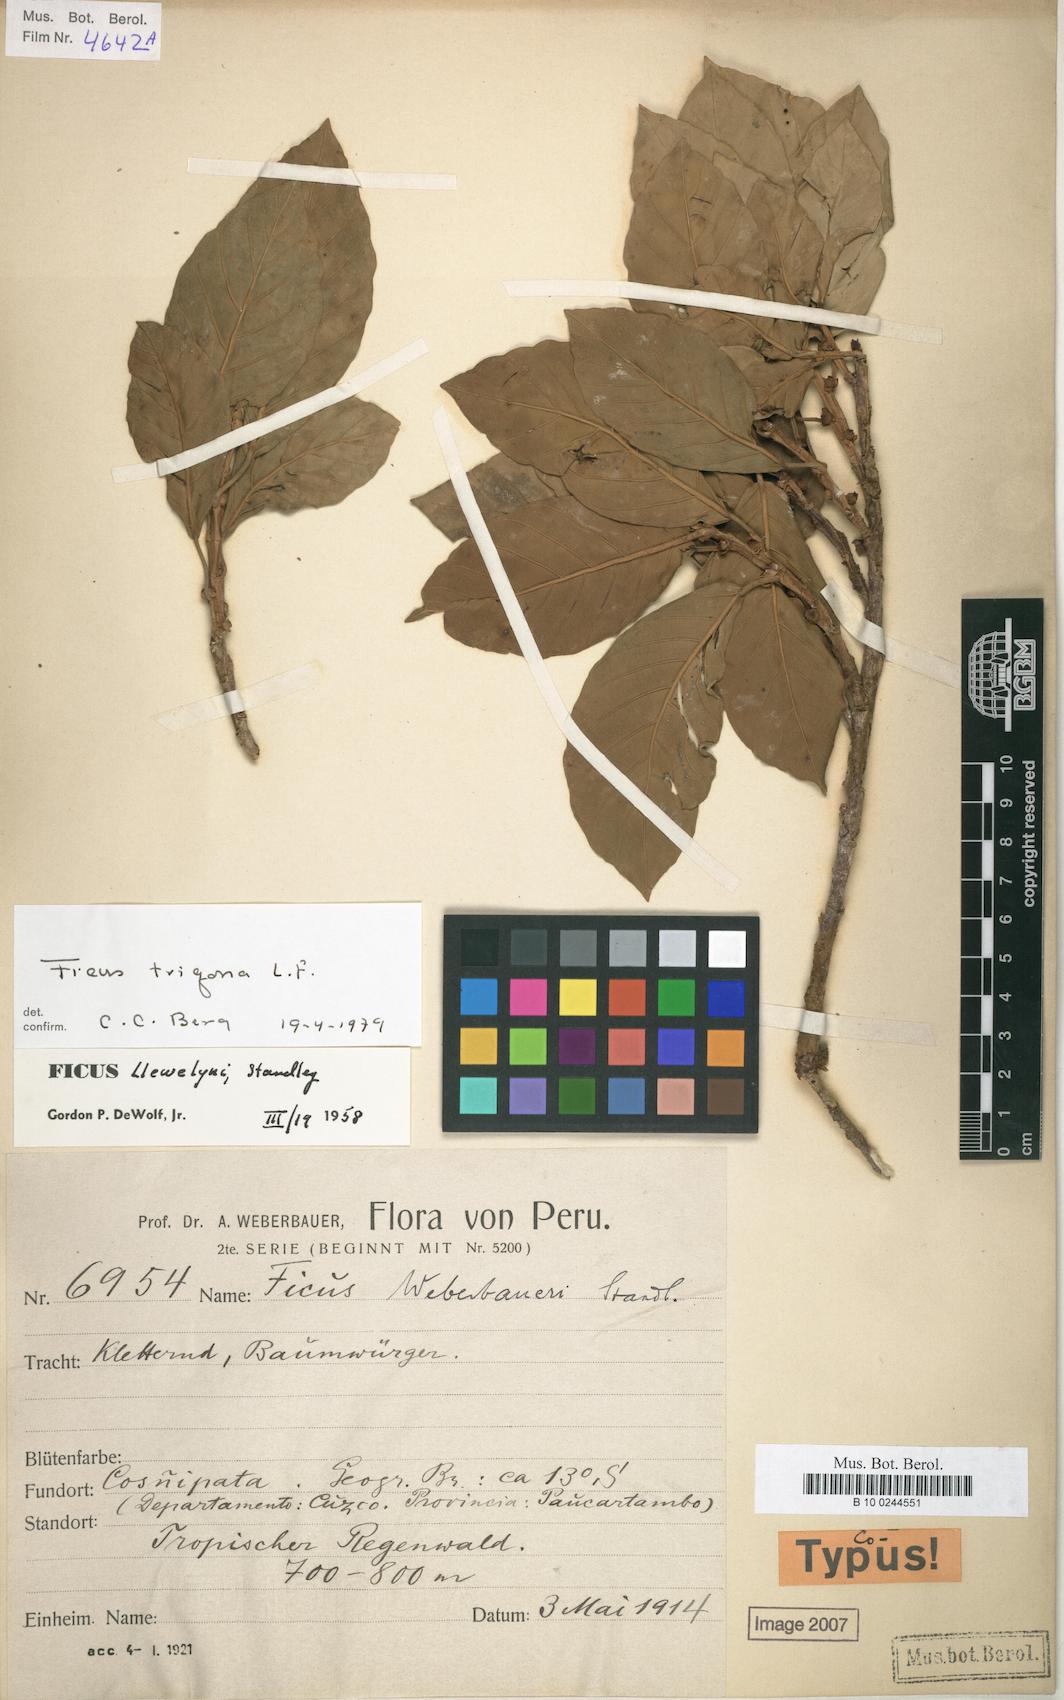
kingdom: Plantae
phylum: Tracheophyta
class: Magnoliopsida
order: Rosales
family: Moraceae
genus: Ficus
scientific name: Ficus trigona
